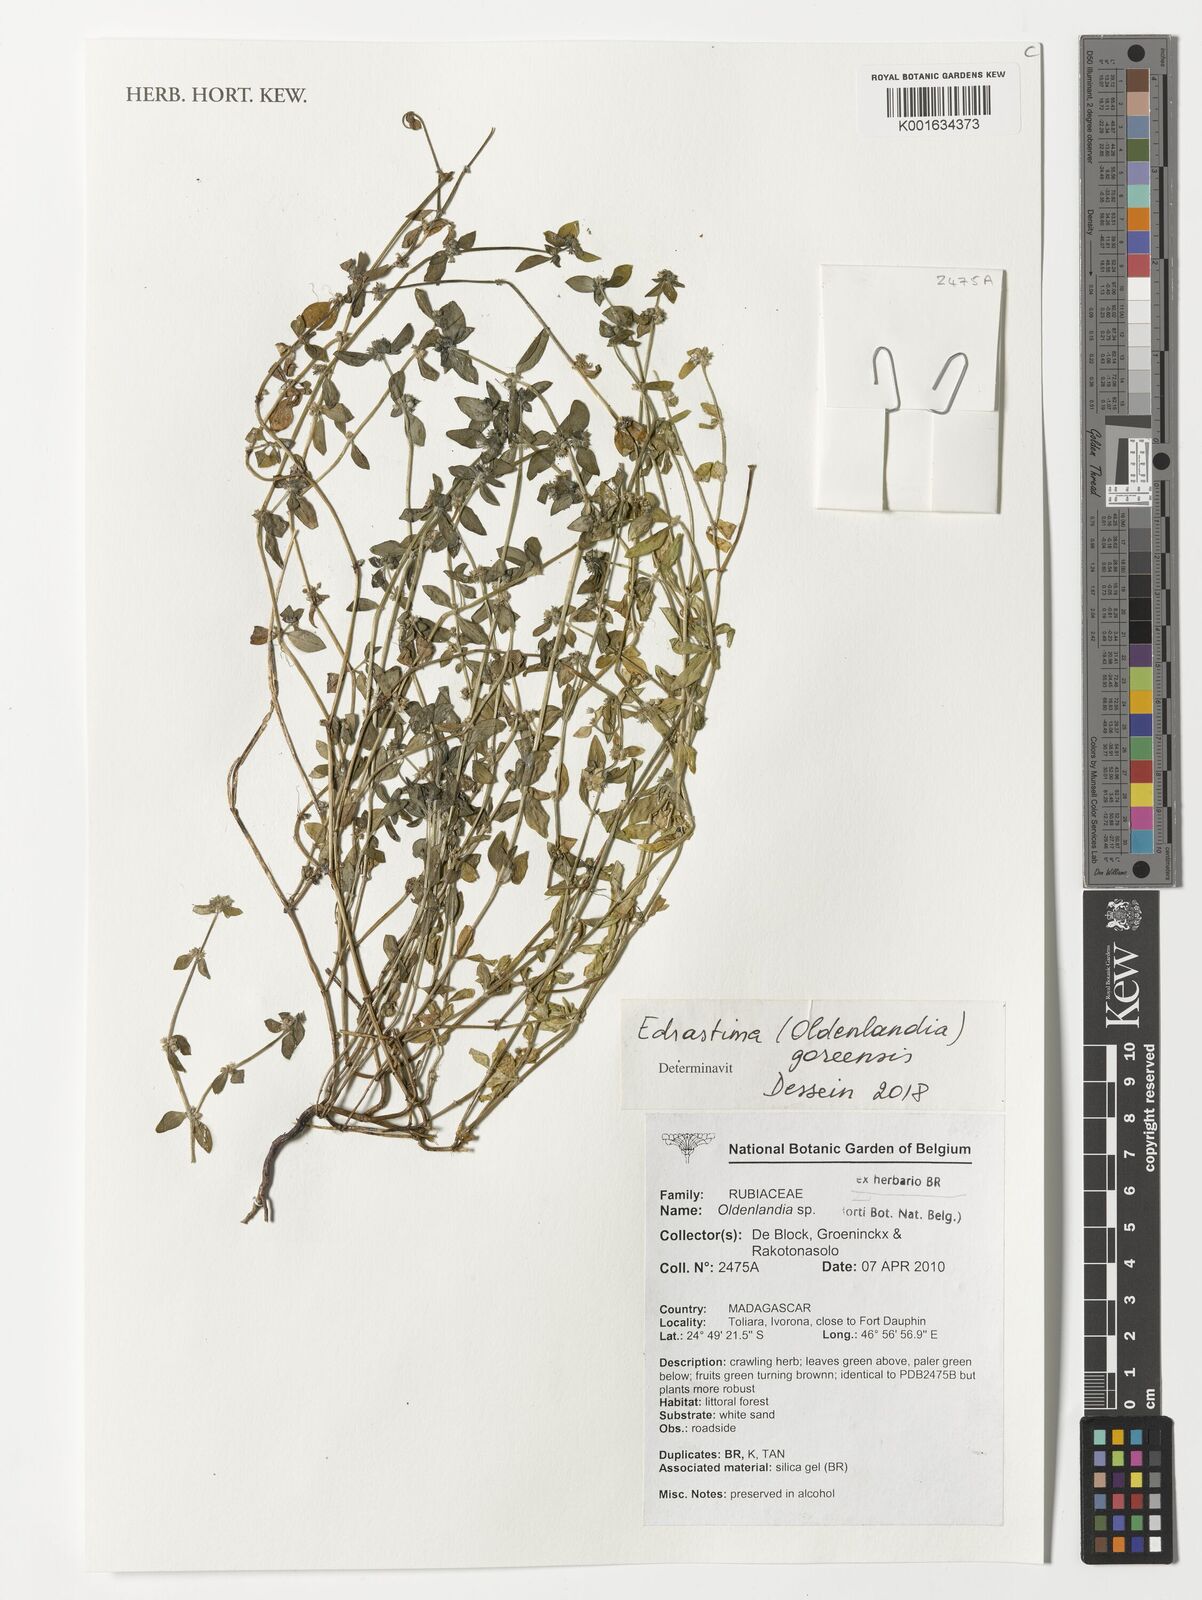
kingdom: Plantae
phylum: Tracheophyta
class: Magnoliopsida
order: Gentianales
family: Rubiaceae
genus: Edrastima
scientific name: Edrastima goreensis
